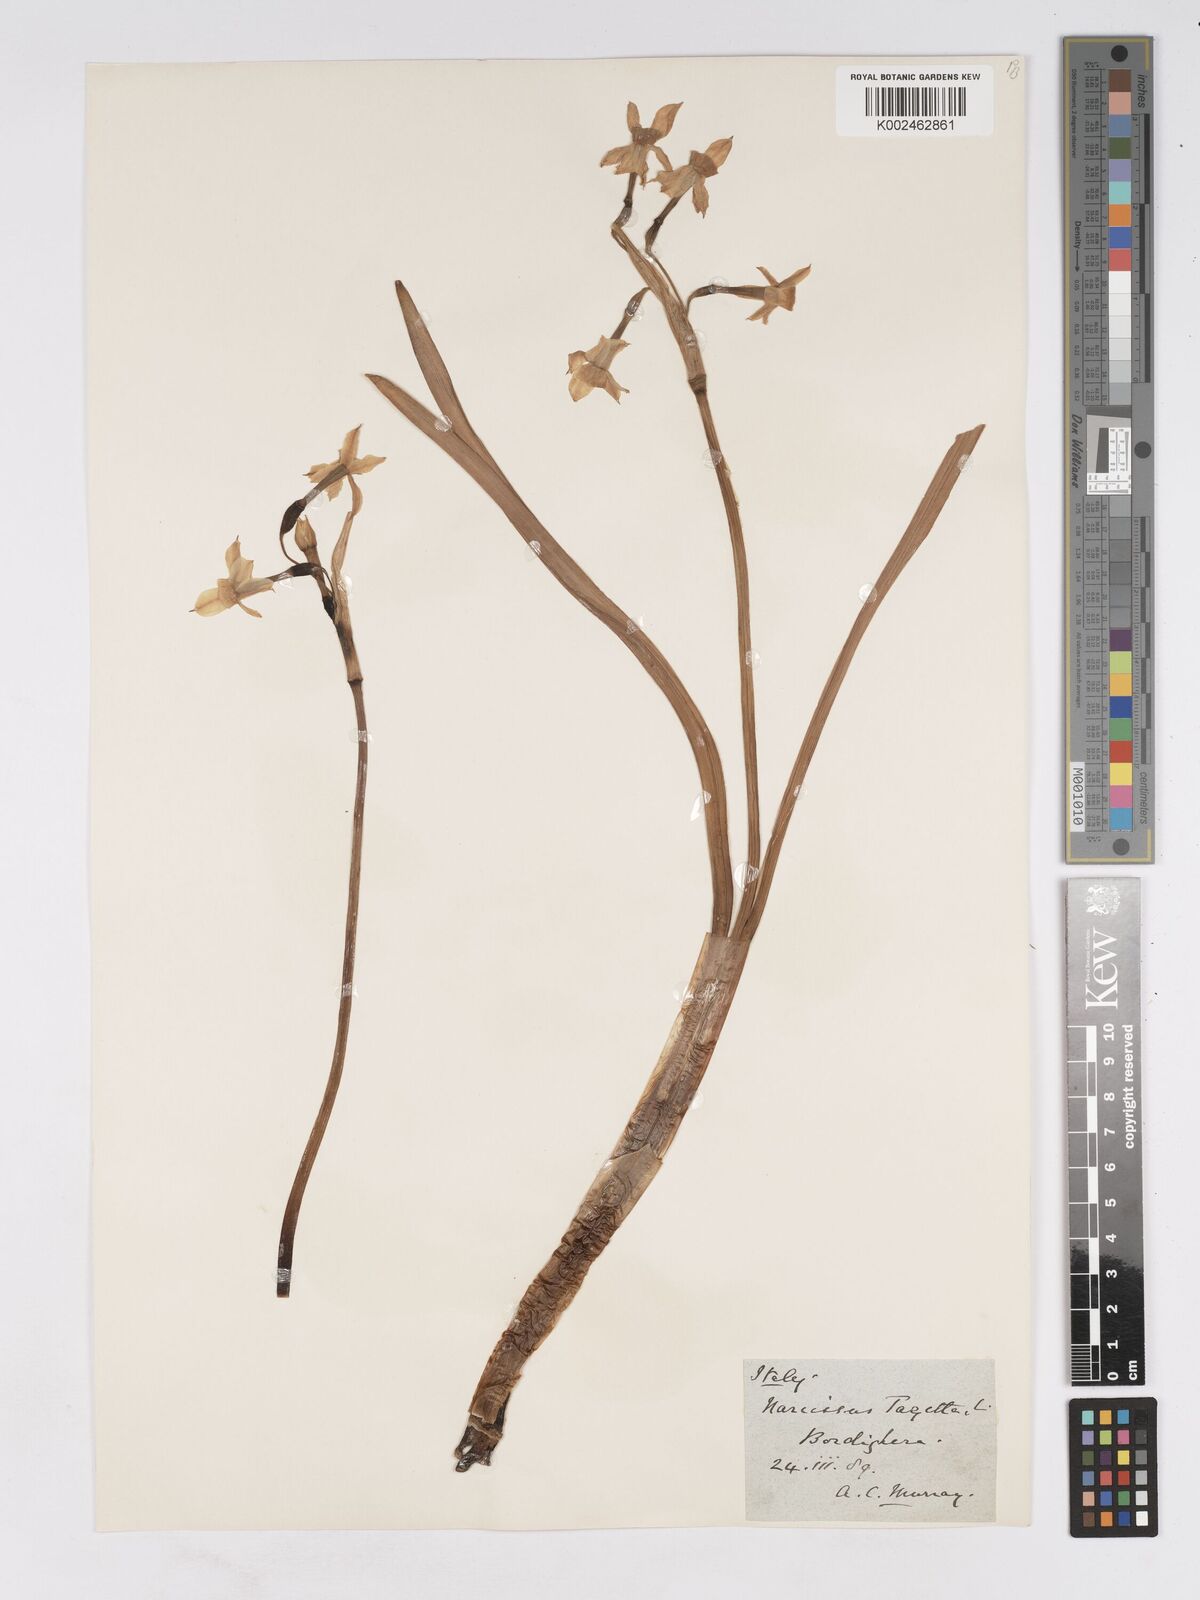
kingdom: Plantae
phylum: Tracheophyta
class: Liliopsida
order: Asparagales
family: Amaryllidaceae
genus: Narcissus
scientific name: Narcissus tazetta
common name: Bunch-flowered daffodil
